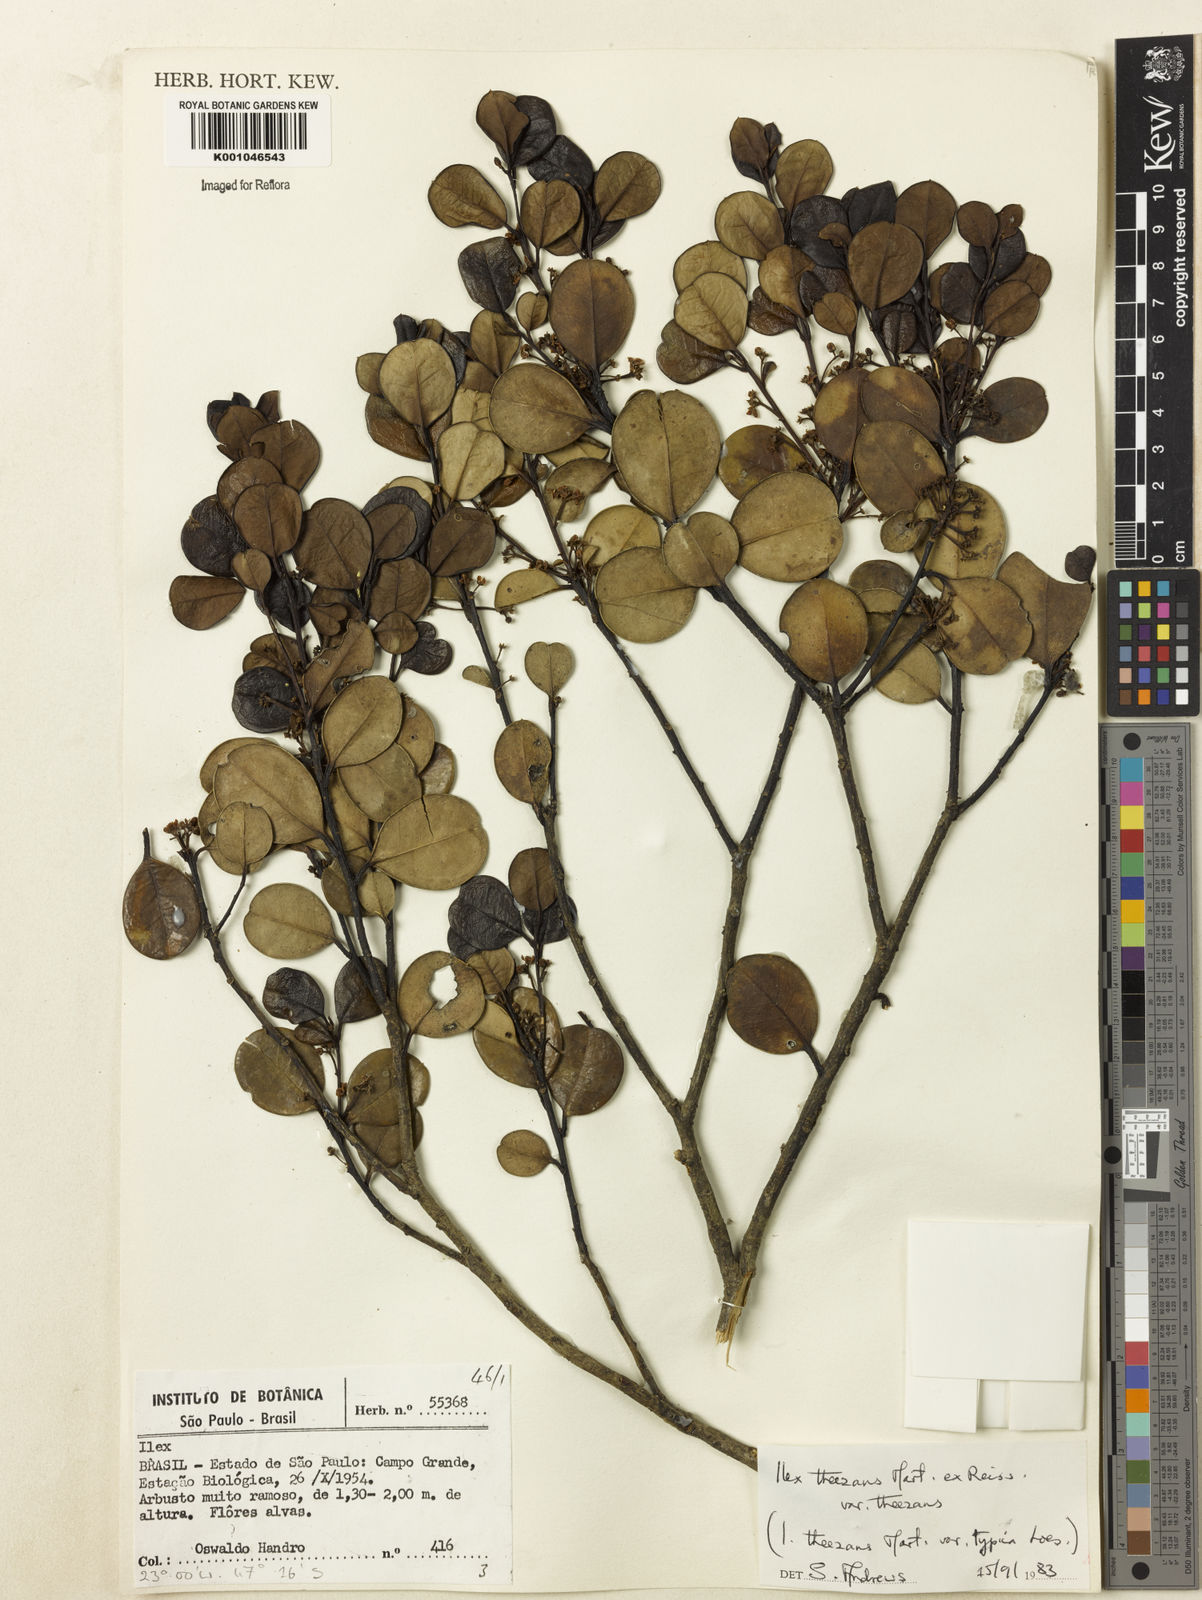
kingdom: Plantae
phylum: Tracheophyta
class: Magnoliopsida
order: Aquifoliales
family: Aquifoliaceae
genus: Ilex
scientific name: Ilex theezans
